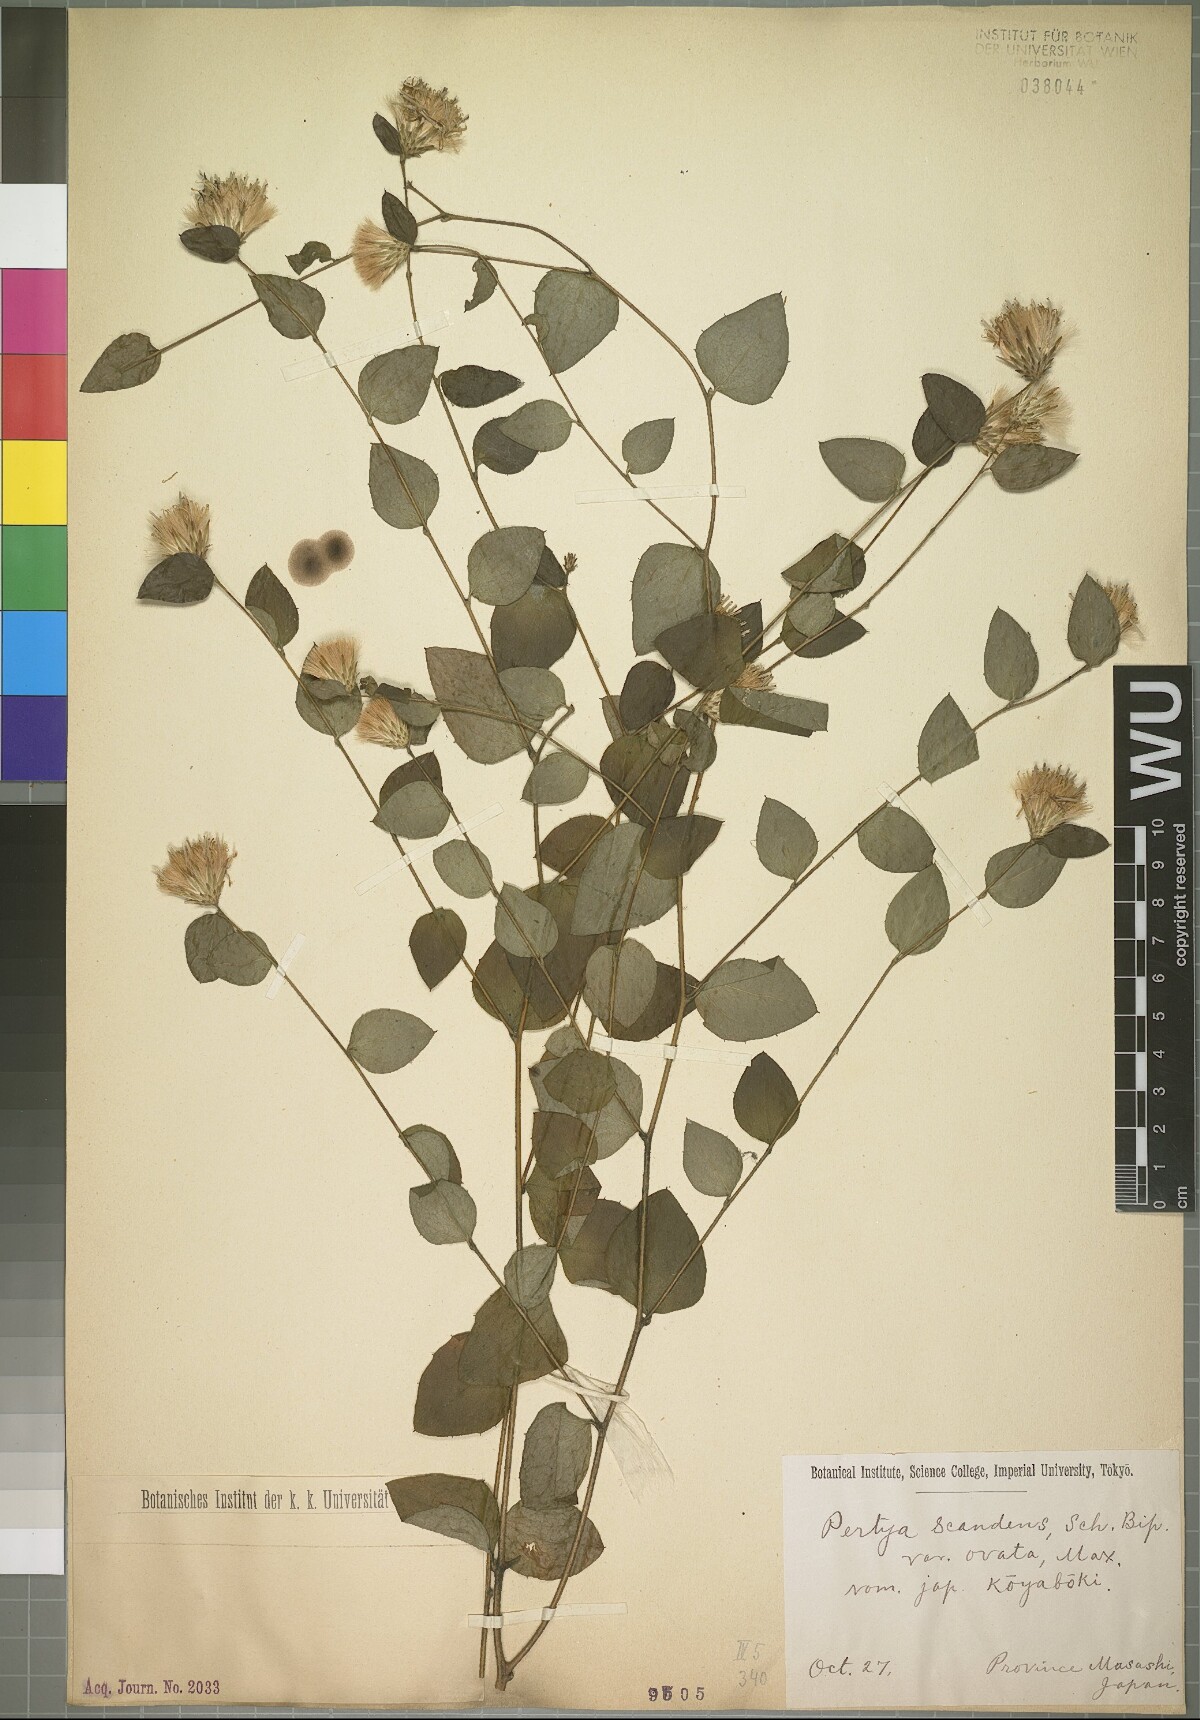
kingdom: Plantae
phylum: Tracheophyta
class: Magnoliopsida
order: Asterales
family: Asteraceae
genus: Pertya
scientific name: Pertya scandens
